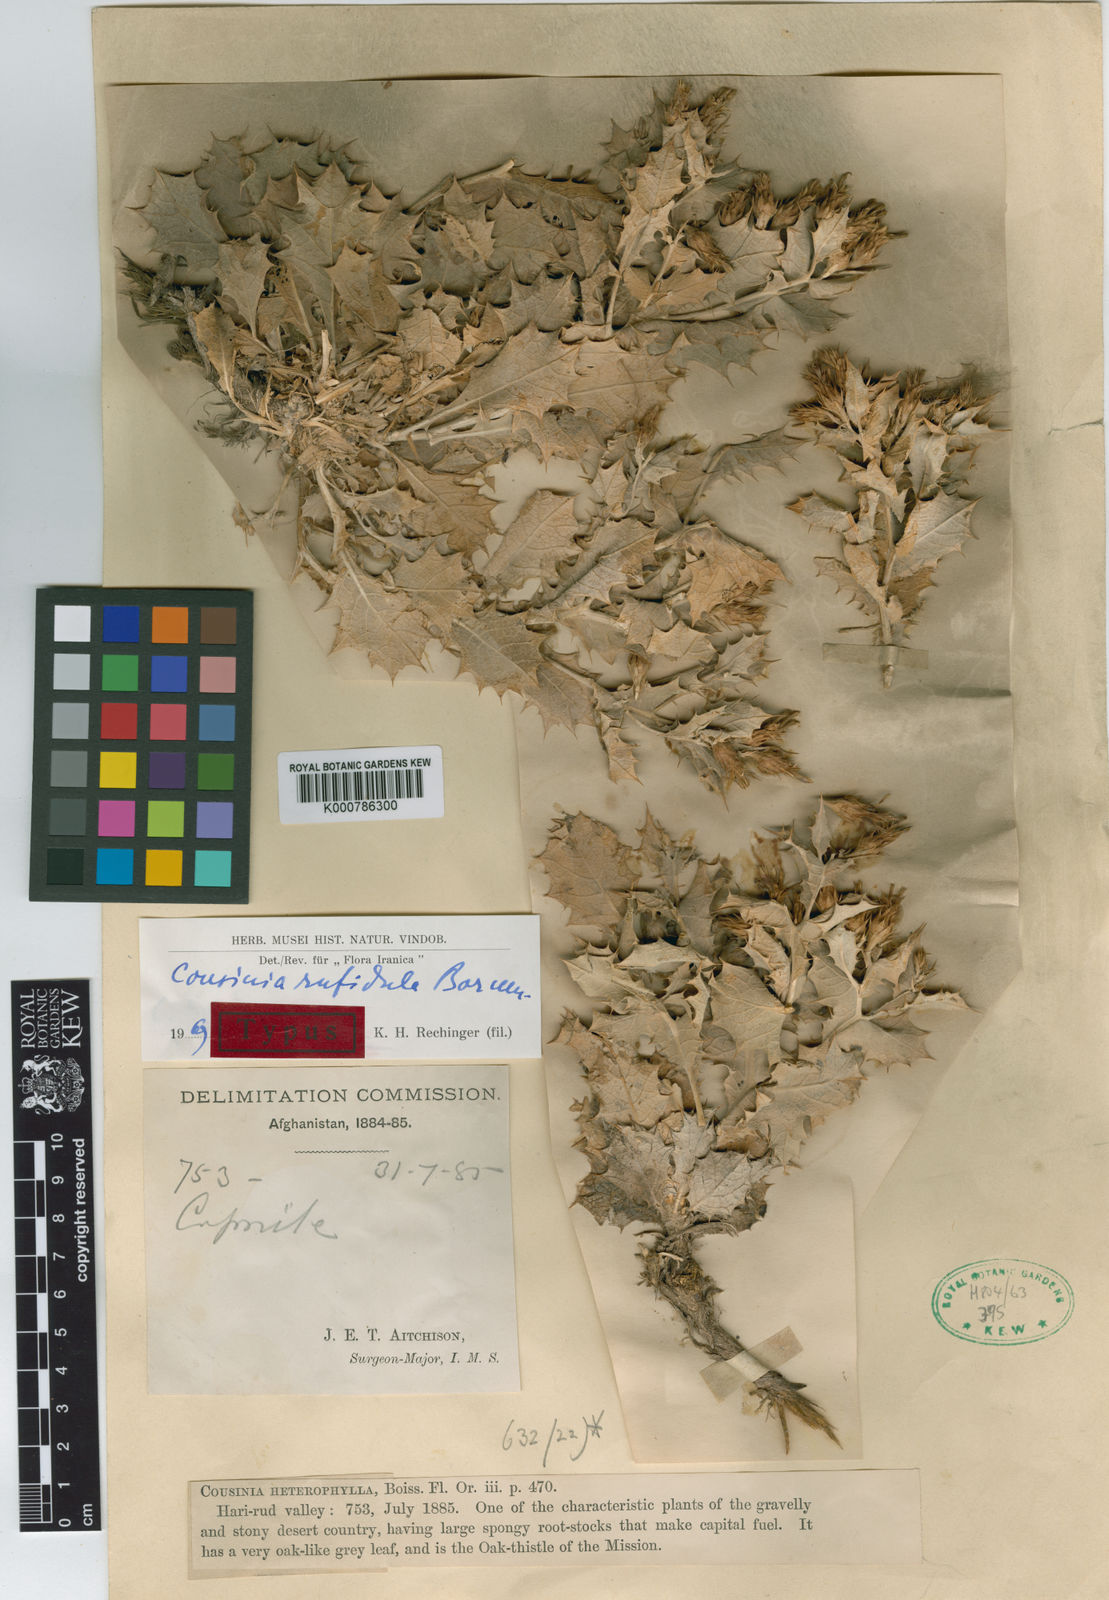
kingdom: Plantae
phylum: Tracheophyta
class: Magnoliopsida
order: Asterales
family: Asteraceae
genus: Cousinia
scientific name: Cousinia rufidula
